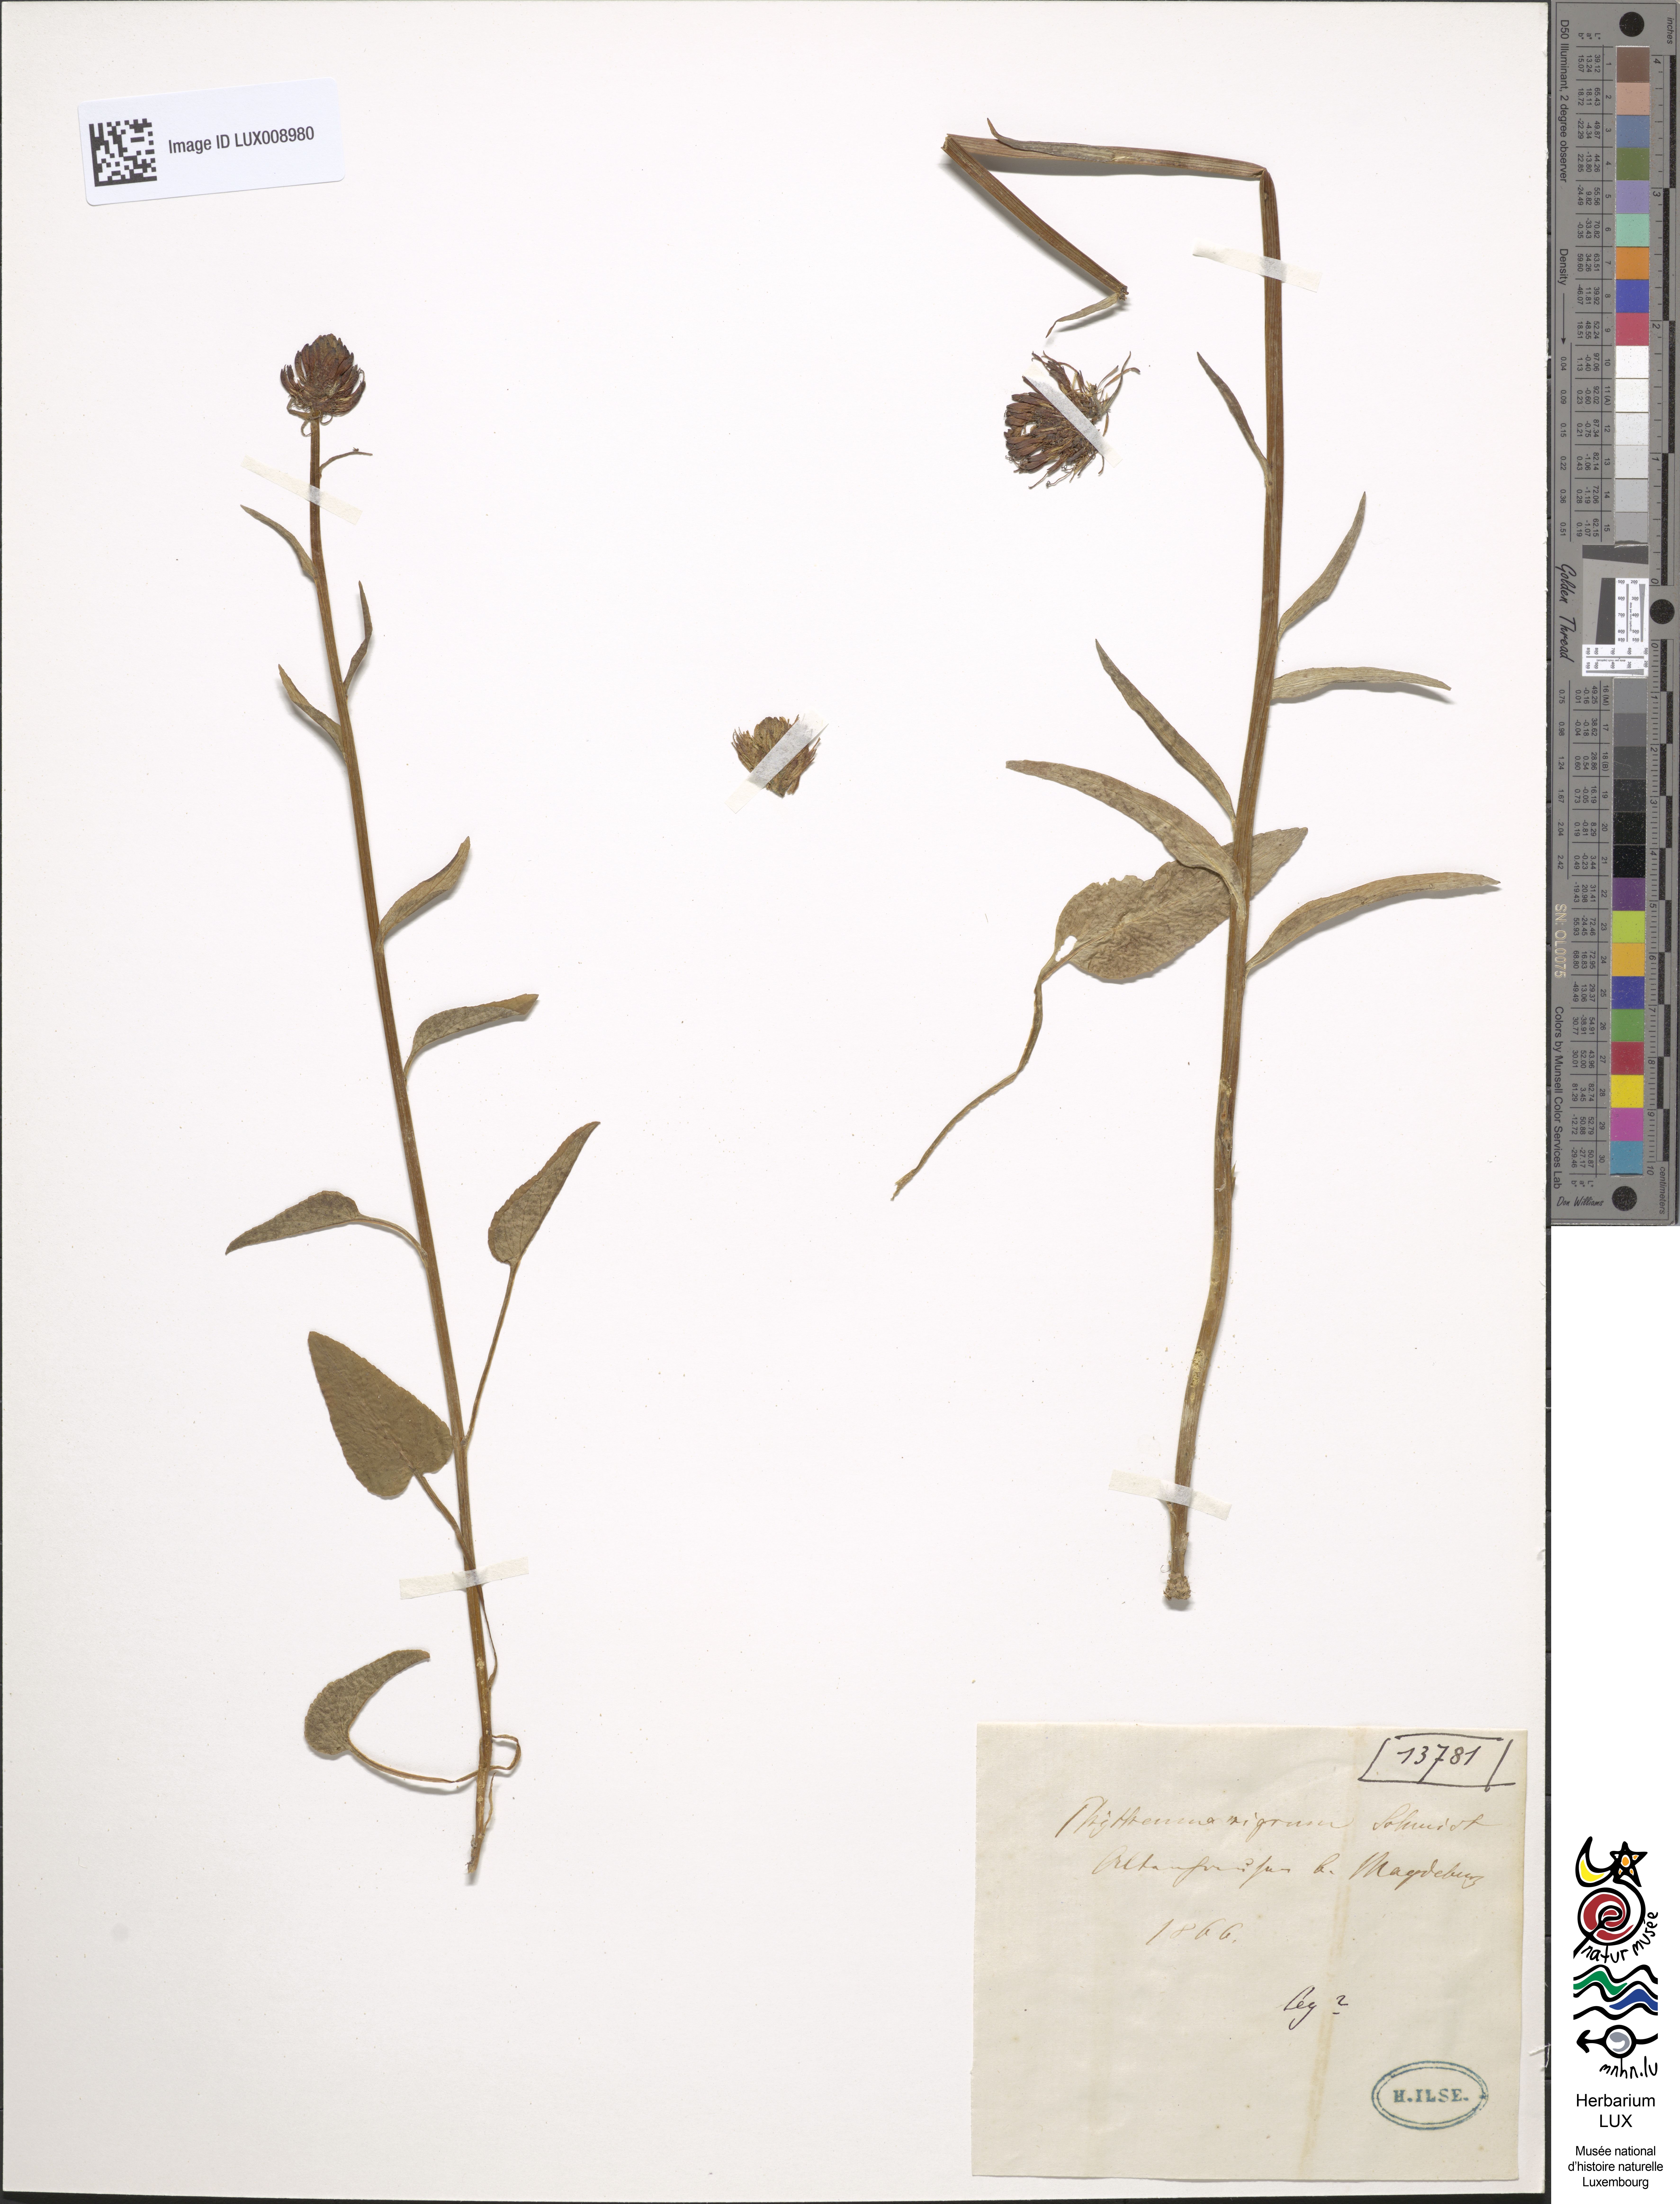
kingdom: Plantae
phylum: Tracheophyta
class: Magnoliopsida
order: Asterales
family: Campanulaceae
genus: Phyteuma
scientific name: Phyteuma nigrum
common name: Black rampion
